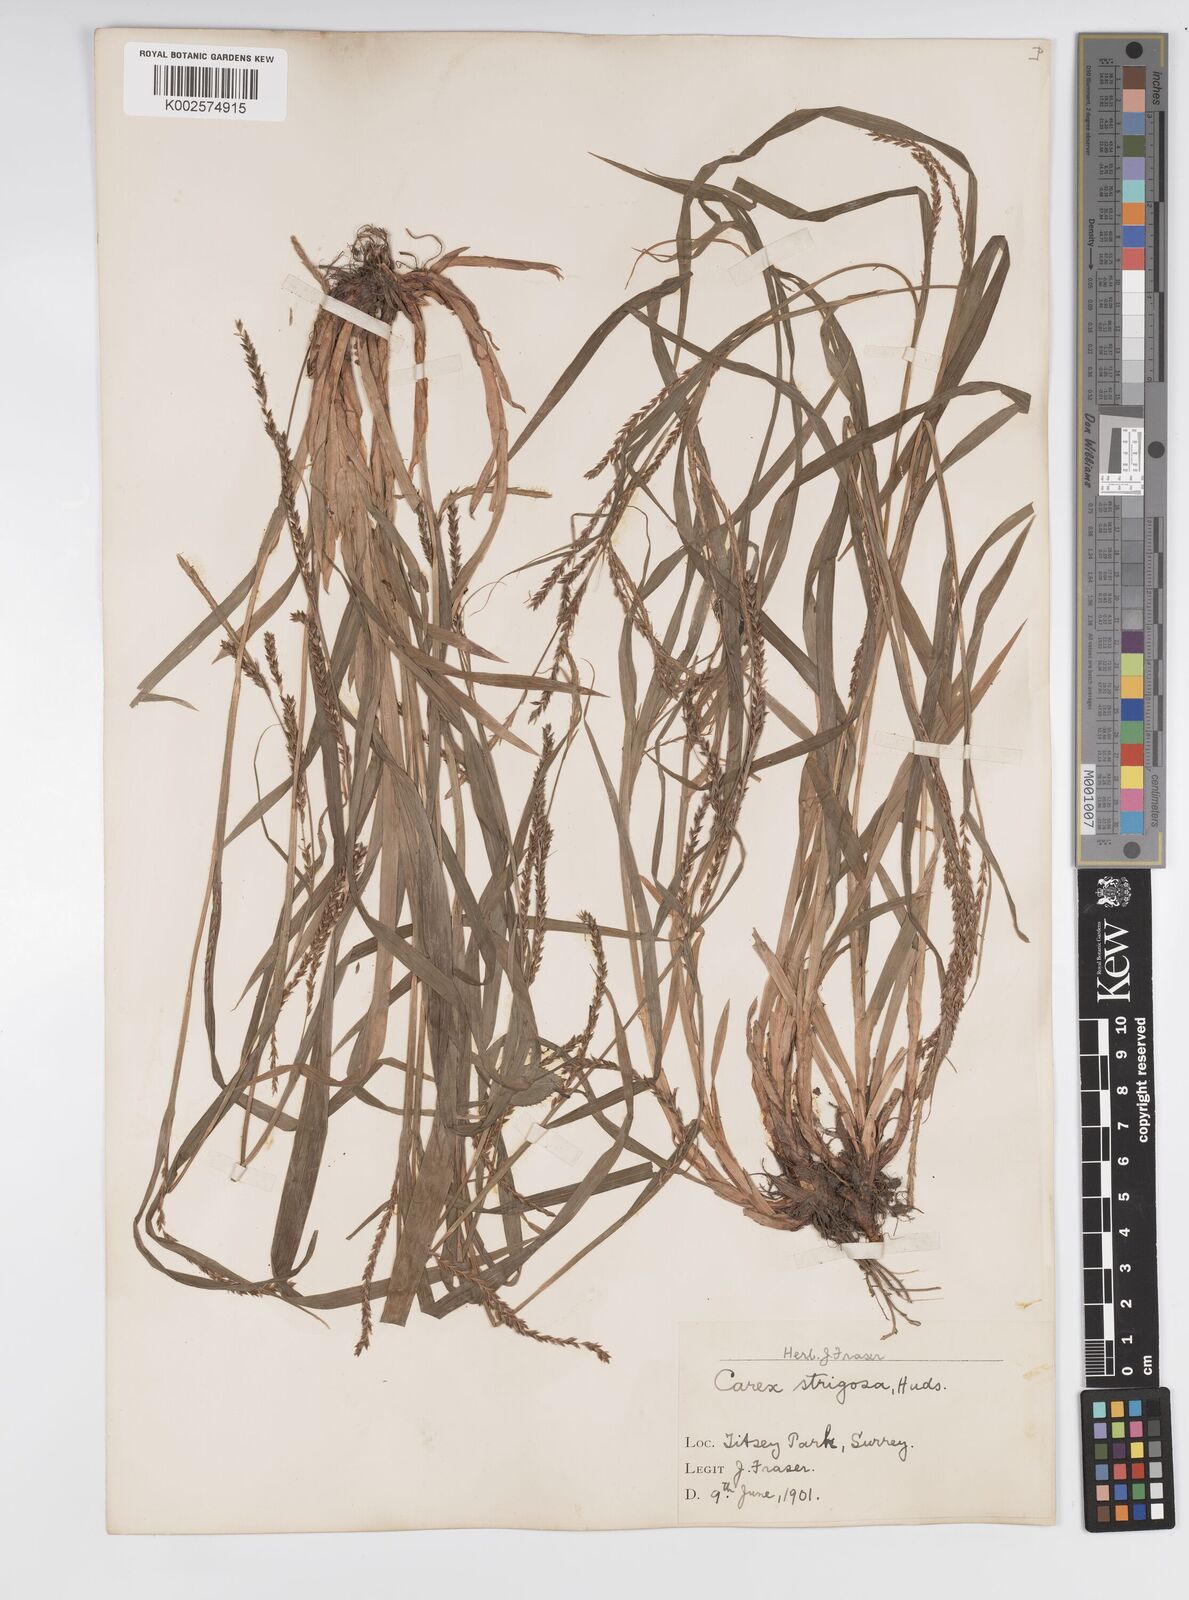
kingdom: Plantae
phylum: Tracheophyta
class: Liliopsida
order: Poales
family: Cyperaceae
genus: Carex
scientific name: Carex strigosa
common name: Thin-spiked wood-sedge
